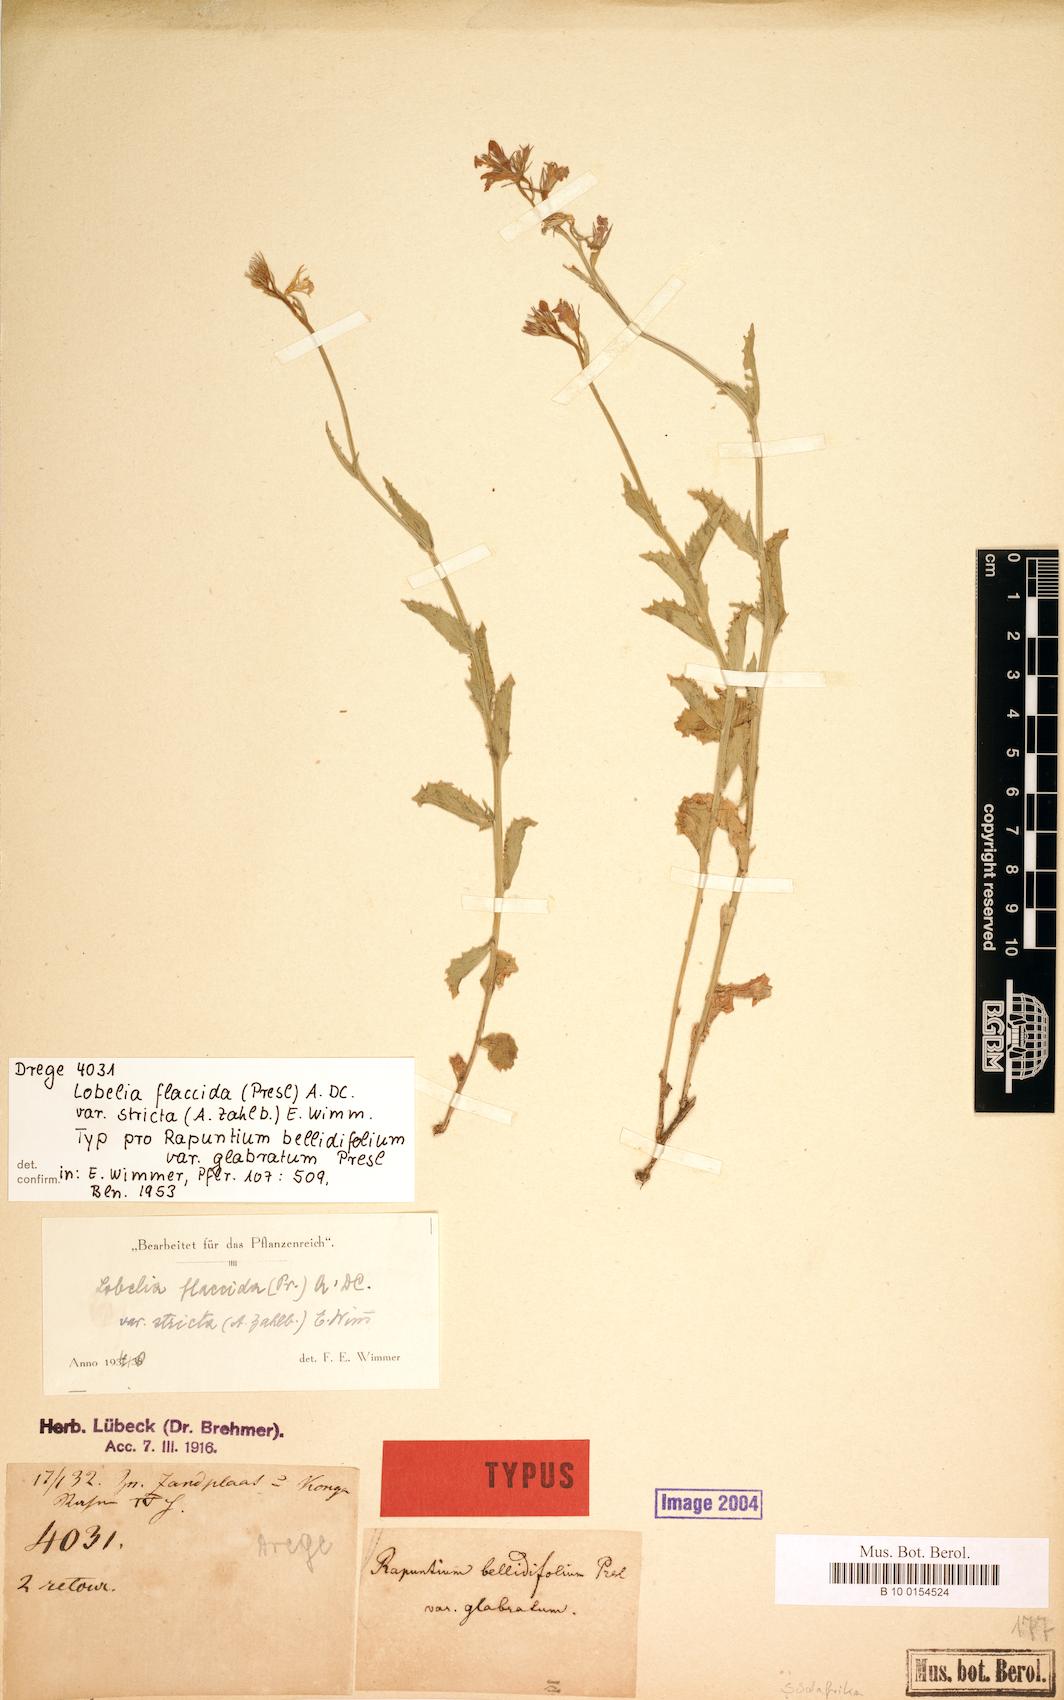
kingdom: Plantae
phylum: Tracheophyta
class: Magnoliopsida
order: Asterales
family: Campanulaceae
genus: Lobelia
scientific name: Lobelia flaccida
